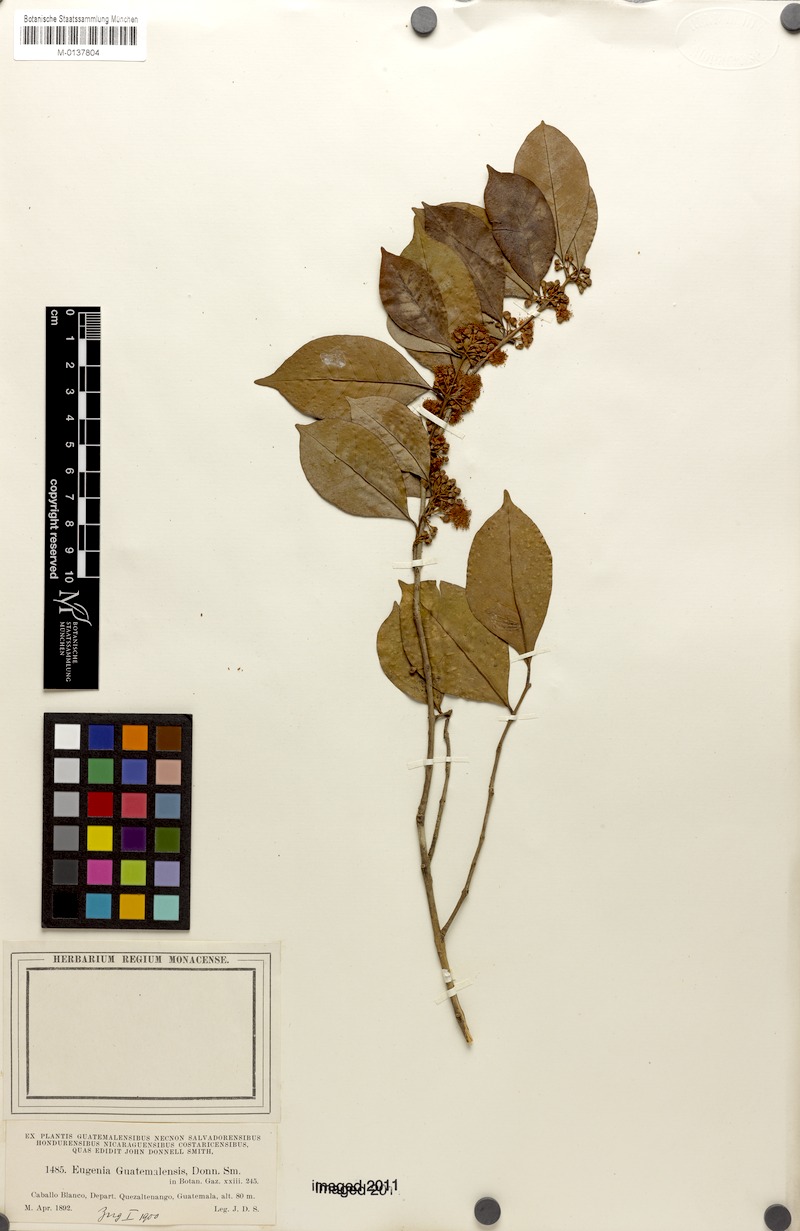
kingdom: Plantae
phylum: Tracheophyta
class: Magnoliopsida
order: Myrtales
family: Myrtaceae
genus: Eugenia
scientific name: Eugenia guatemalensis
